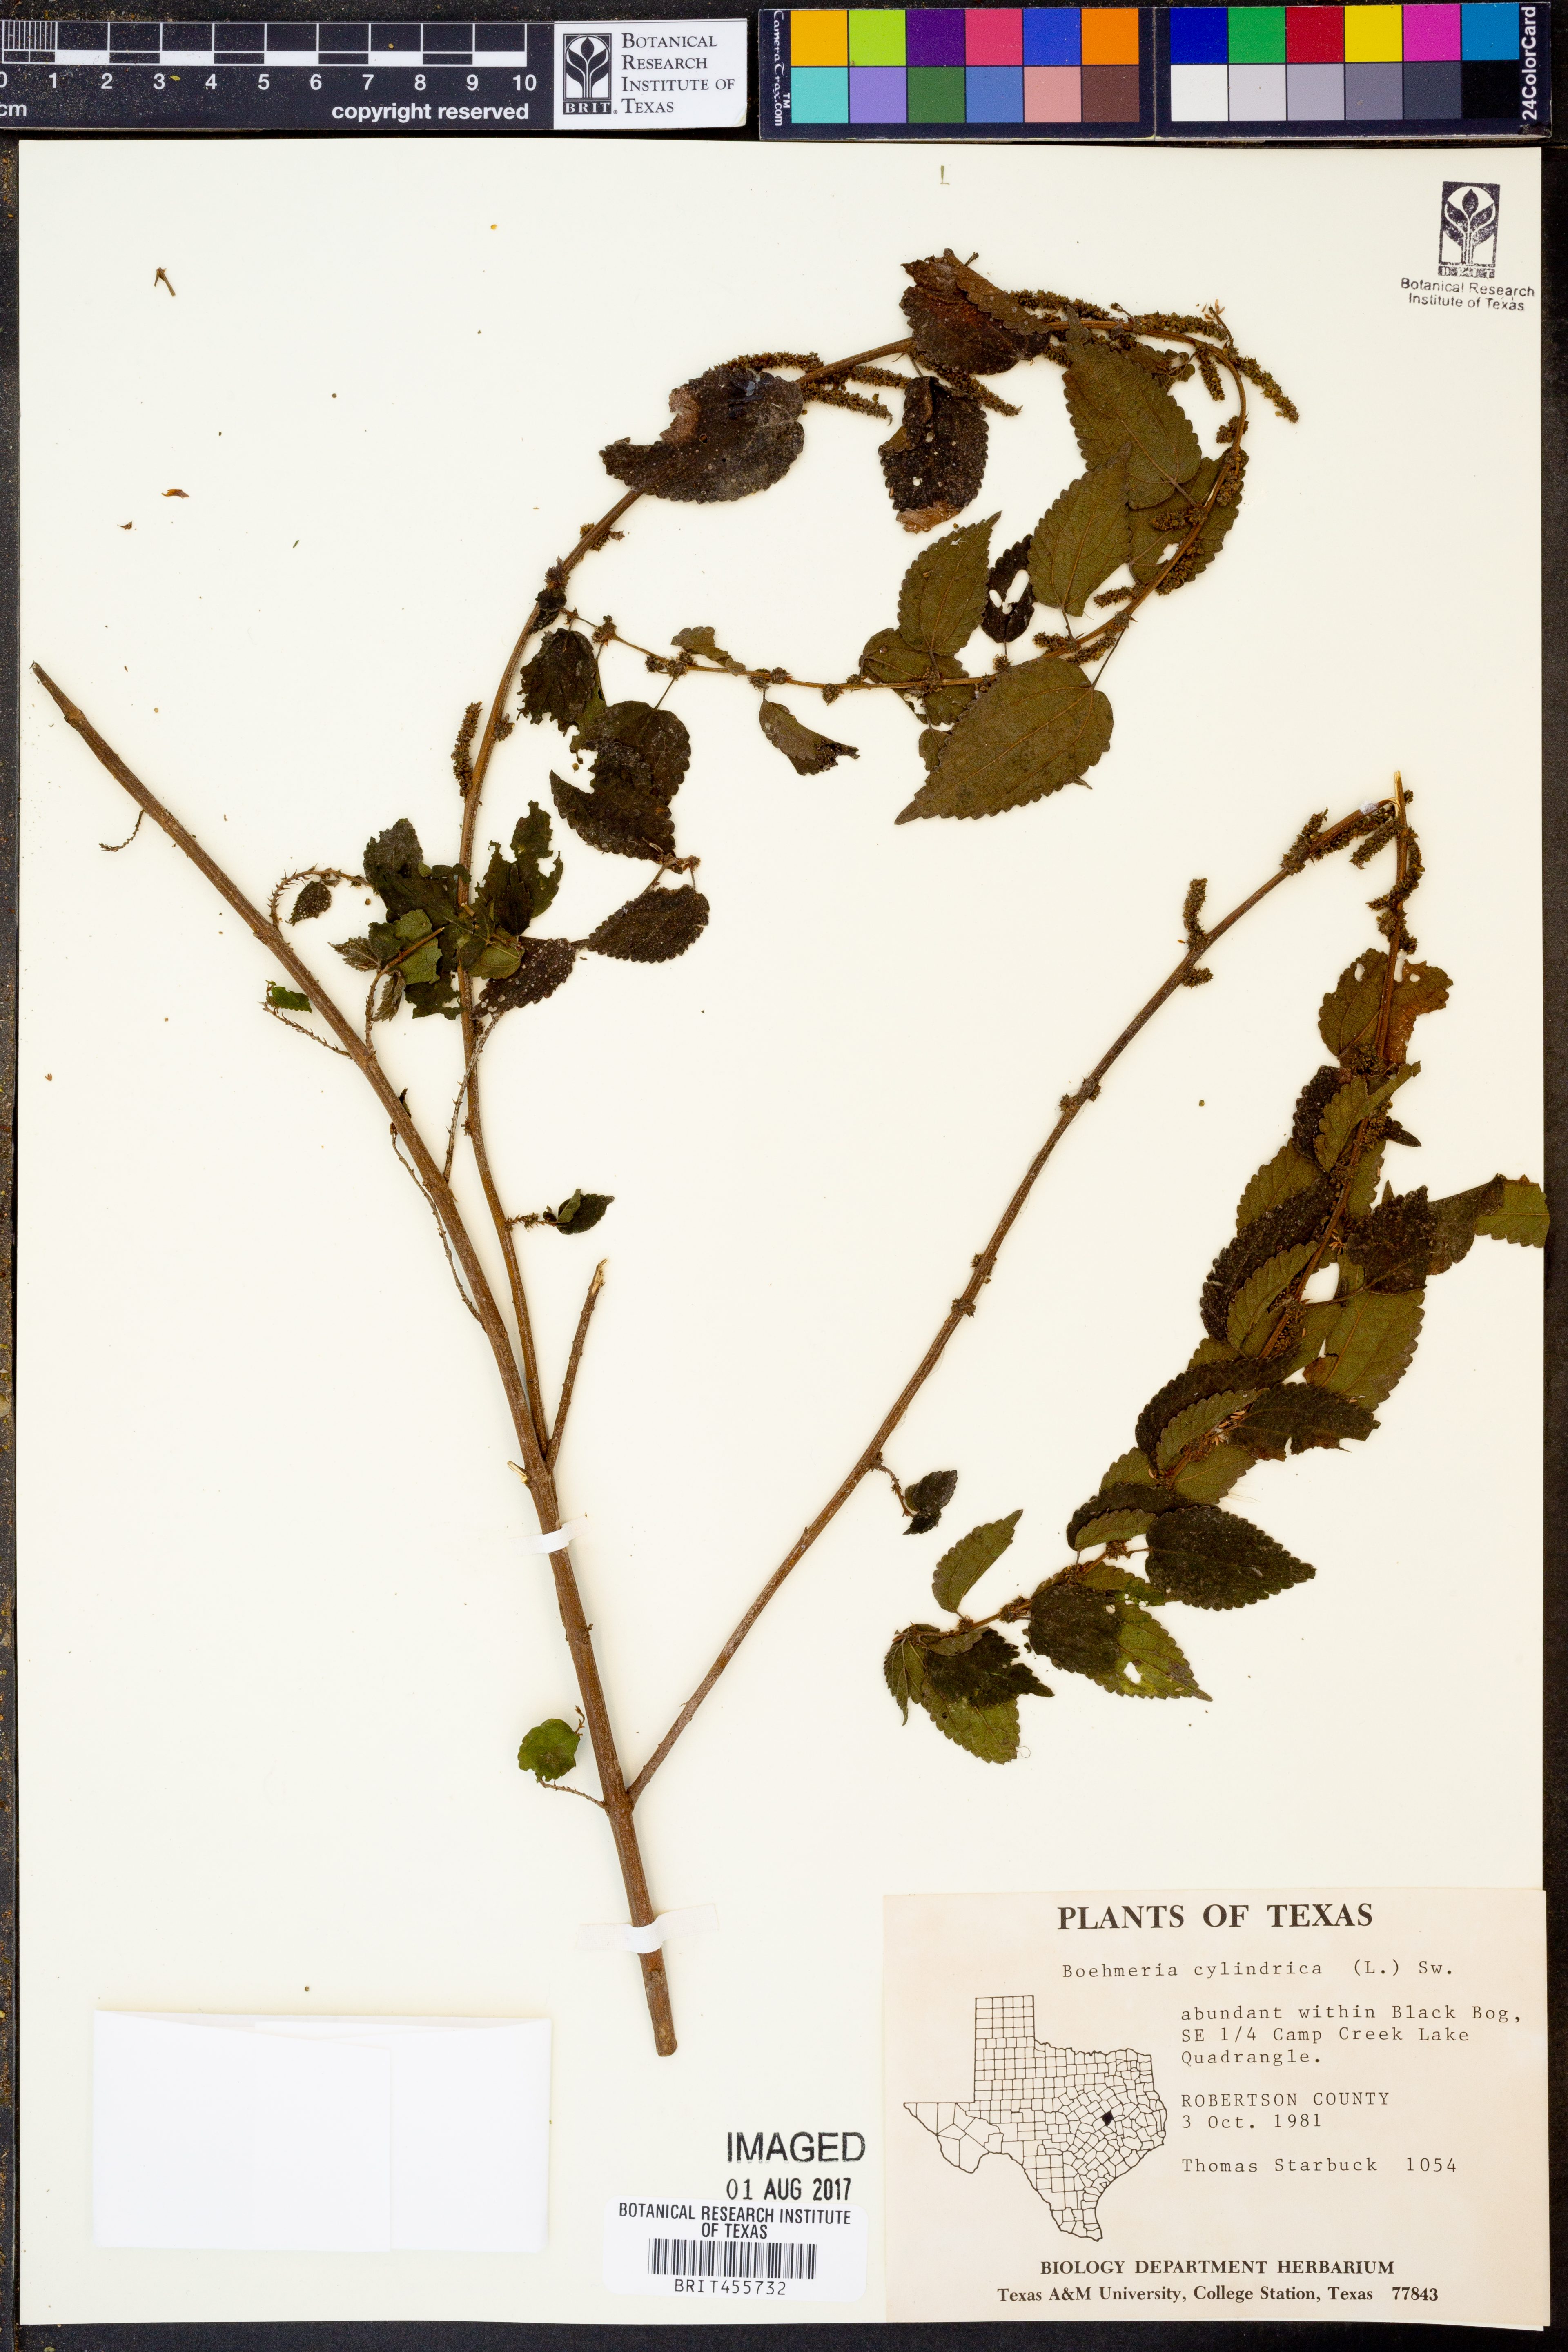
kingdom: Plantae
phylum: Tracheophyta
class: Magnoliopsida
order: Rosales
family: Urticaceae
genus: Boehmeria
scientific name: Boehmeria cylindrica
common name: Bog-hemp
